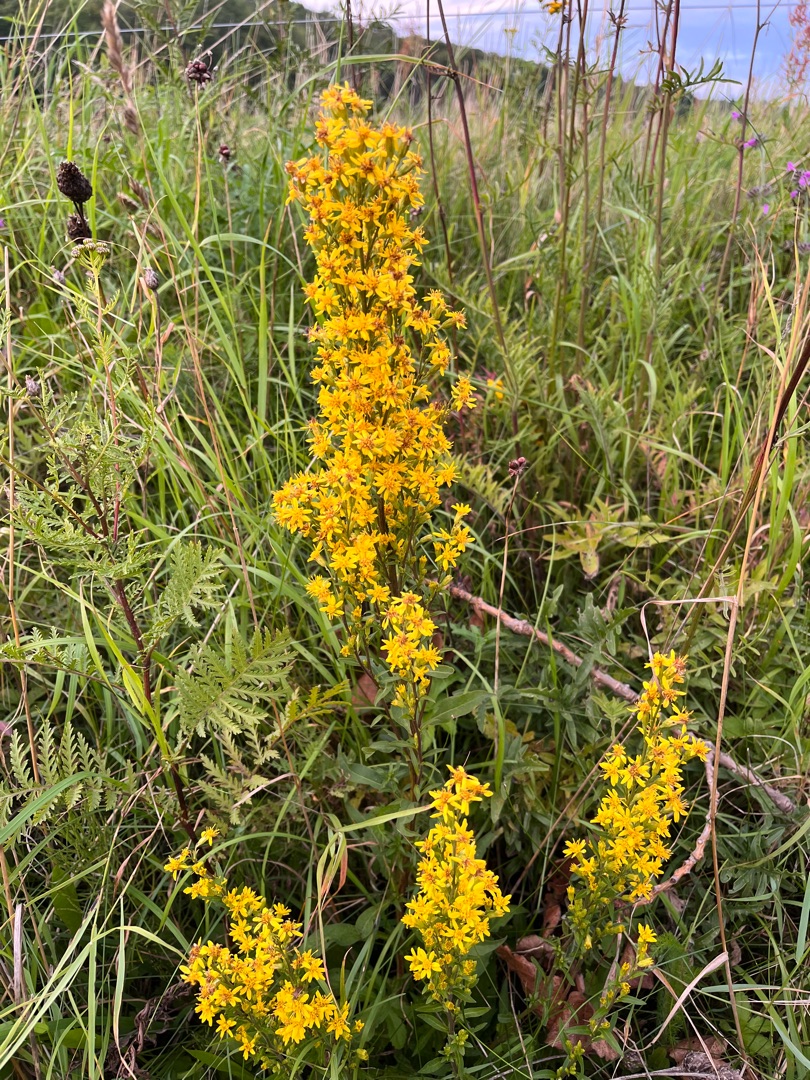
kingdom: Plantae
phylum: Tracheophyta
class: Magnoliopsida
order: Asterales
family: Asteraceae
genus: Solidago
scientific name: Solidago virgaurea
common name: Almindelig gyldenris
